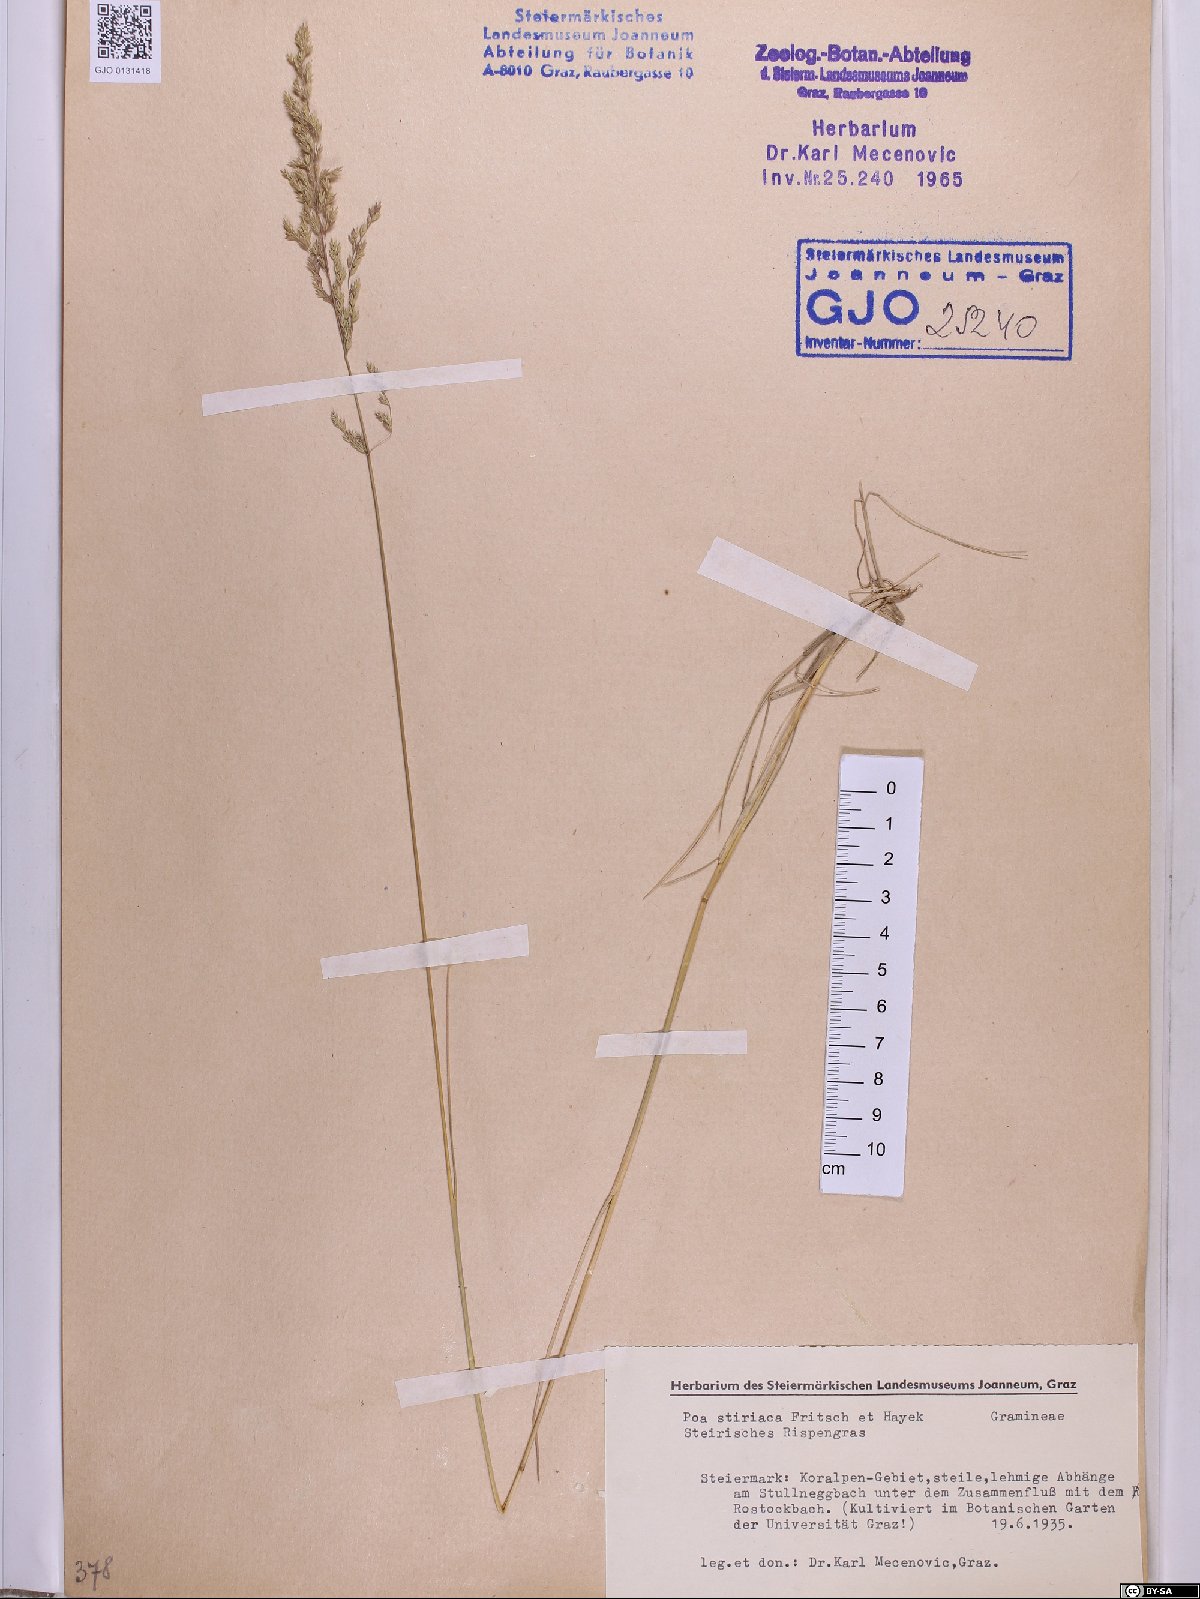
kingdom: Plantae
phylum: Tracheophyta
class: Liliopsida
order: Poales
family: Poaceae
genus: Poa
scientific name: Poa stiriaca
